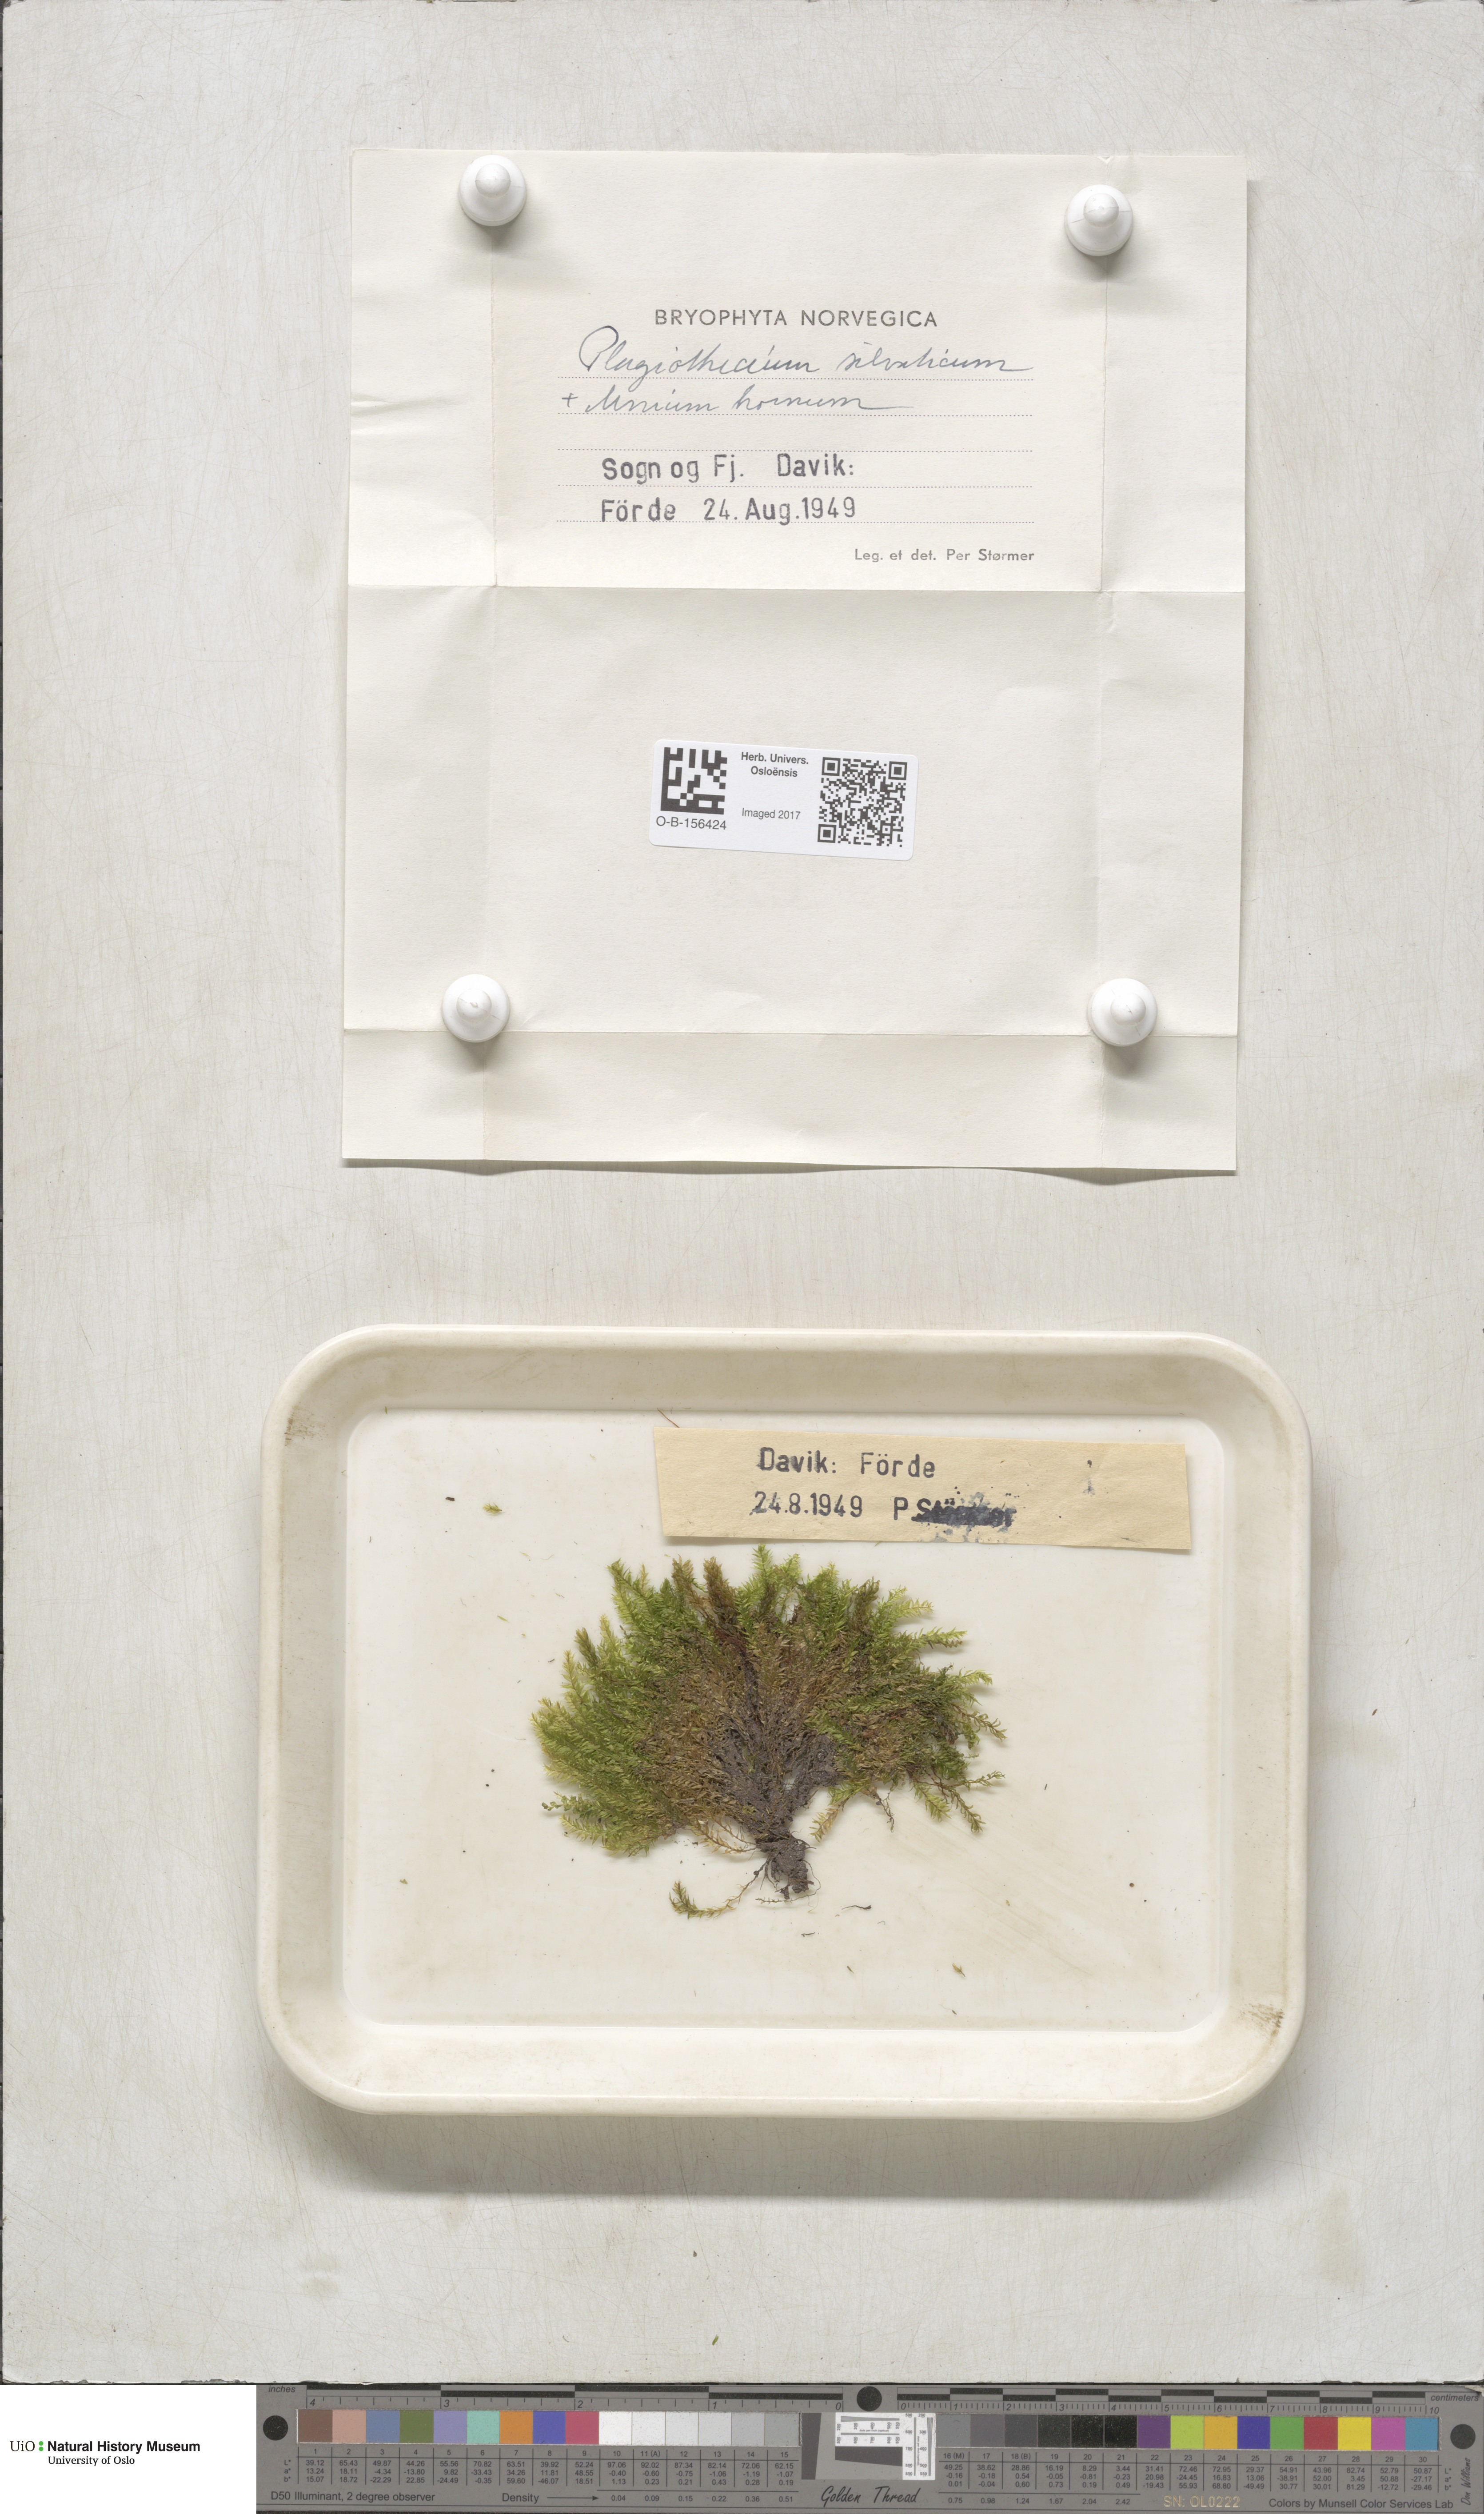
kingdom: Plantae
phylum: Bryophyta
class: Bryopsida
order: Hypnales
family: Plagiotheciaceae
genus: Plagiothecium
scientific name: Plagiothecium nemorale
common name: Woodsy silk-moss
